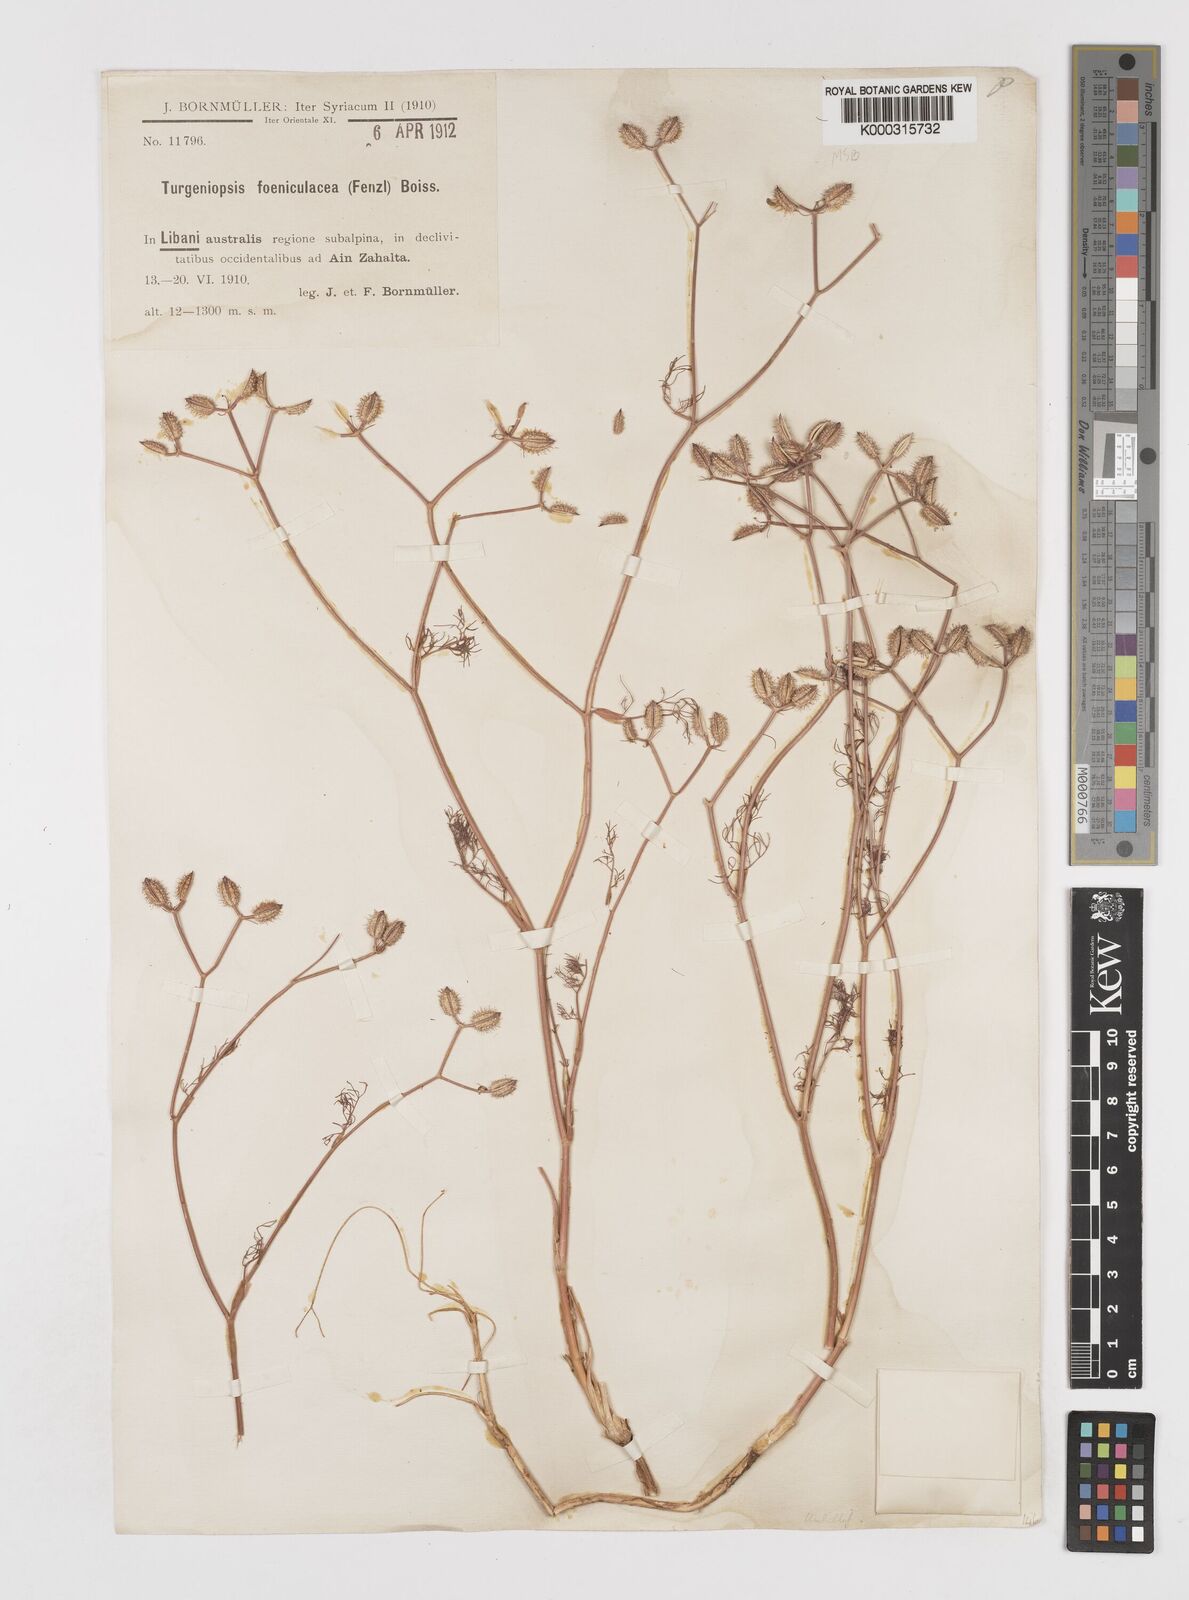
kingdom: Plantae
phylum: Tracheophyta
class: Magnoliopsida
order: Apiales
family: Apiaceae
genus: Turgeniopsis
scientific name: Turgeniopsis foeniculacea
